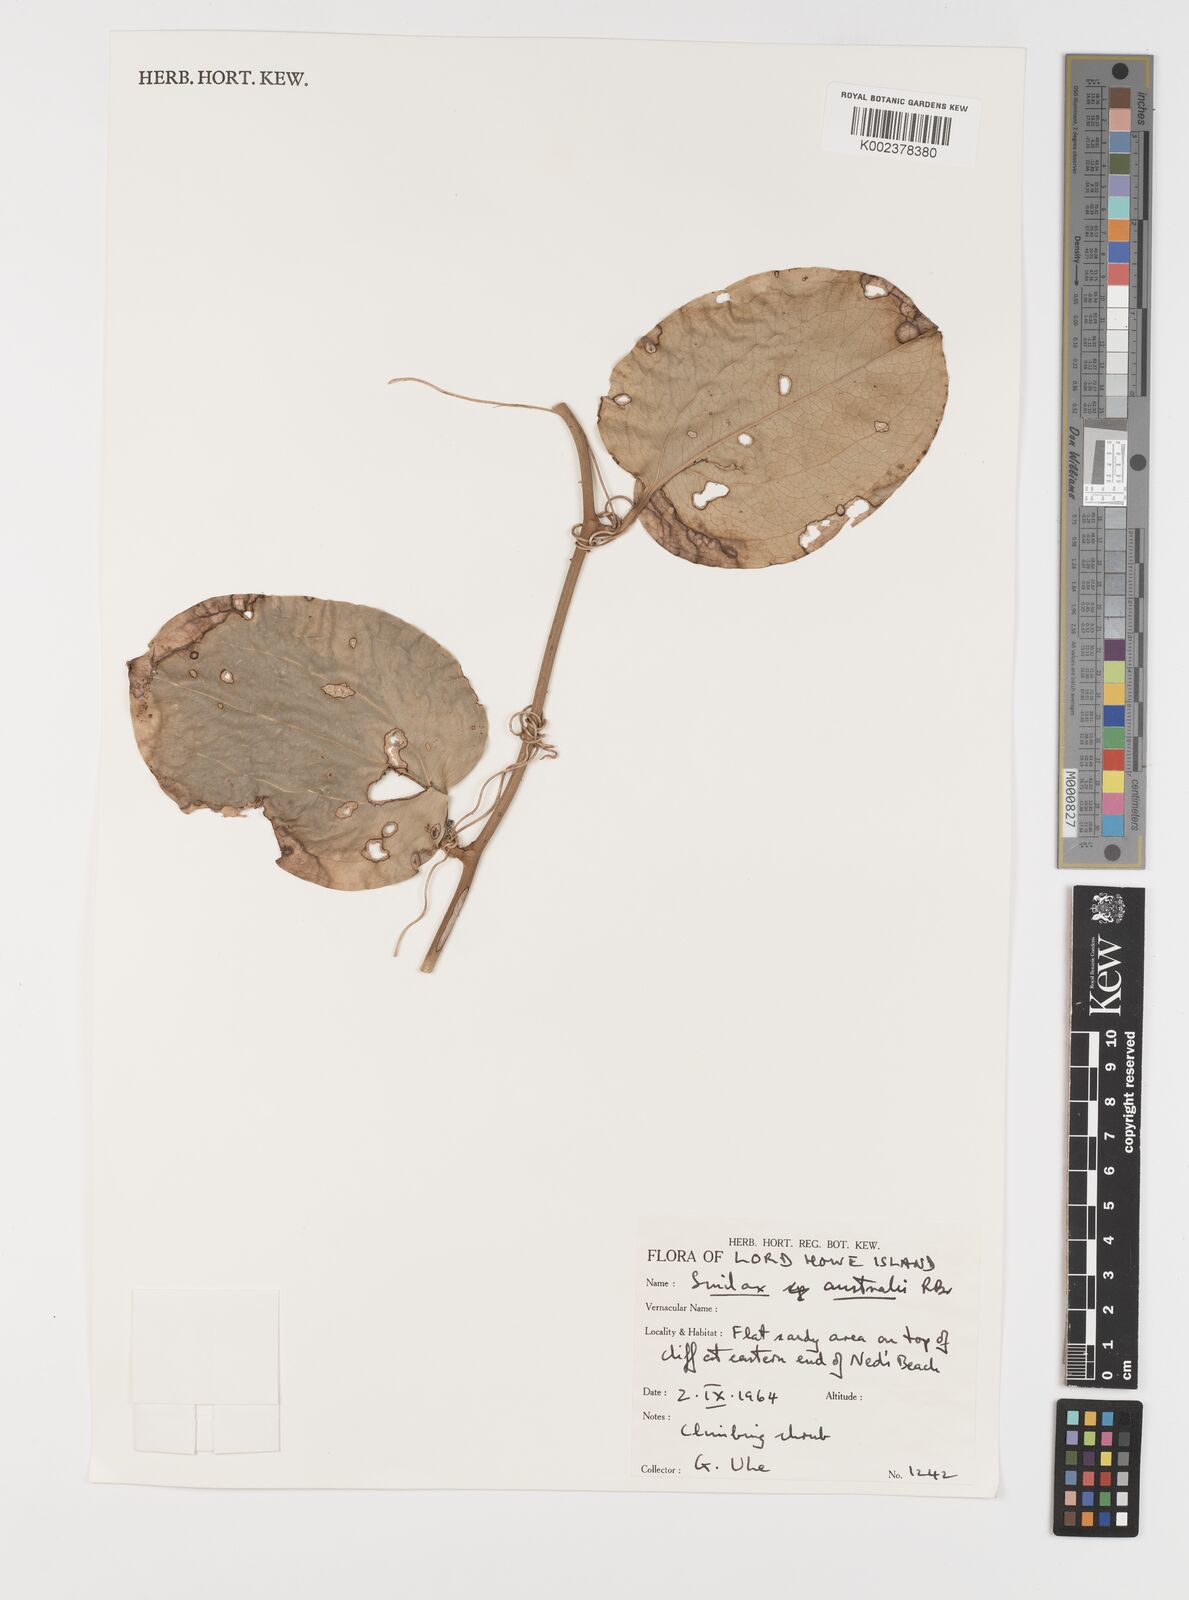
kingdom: Plantae
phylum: Tracheophyta
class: Liliopsida
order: Liliales
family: Smilacaceae
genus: Smilax
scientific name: Smilax australis
